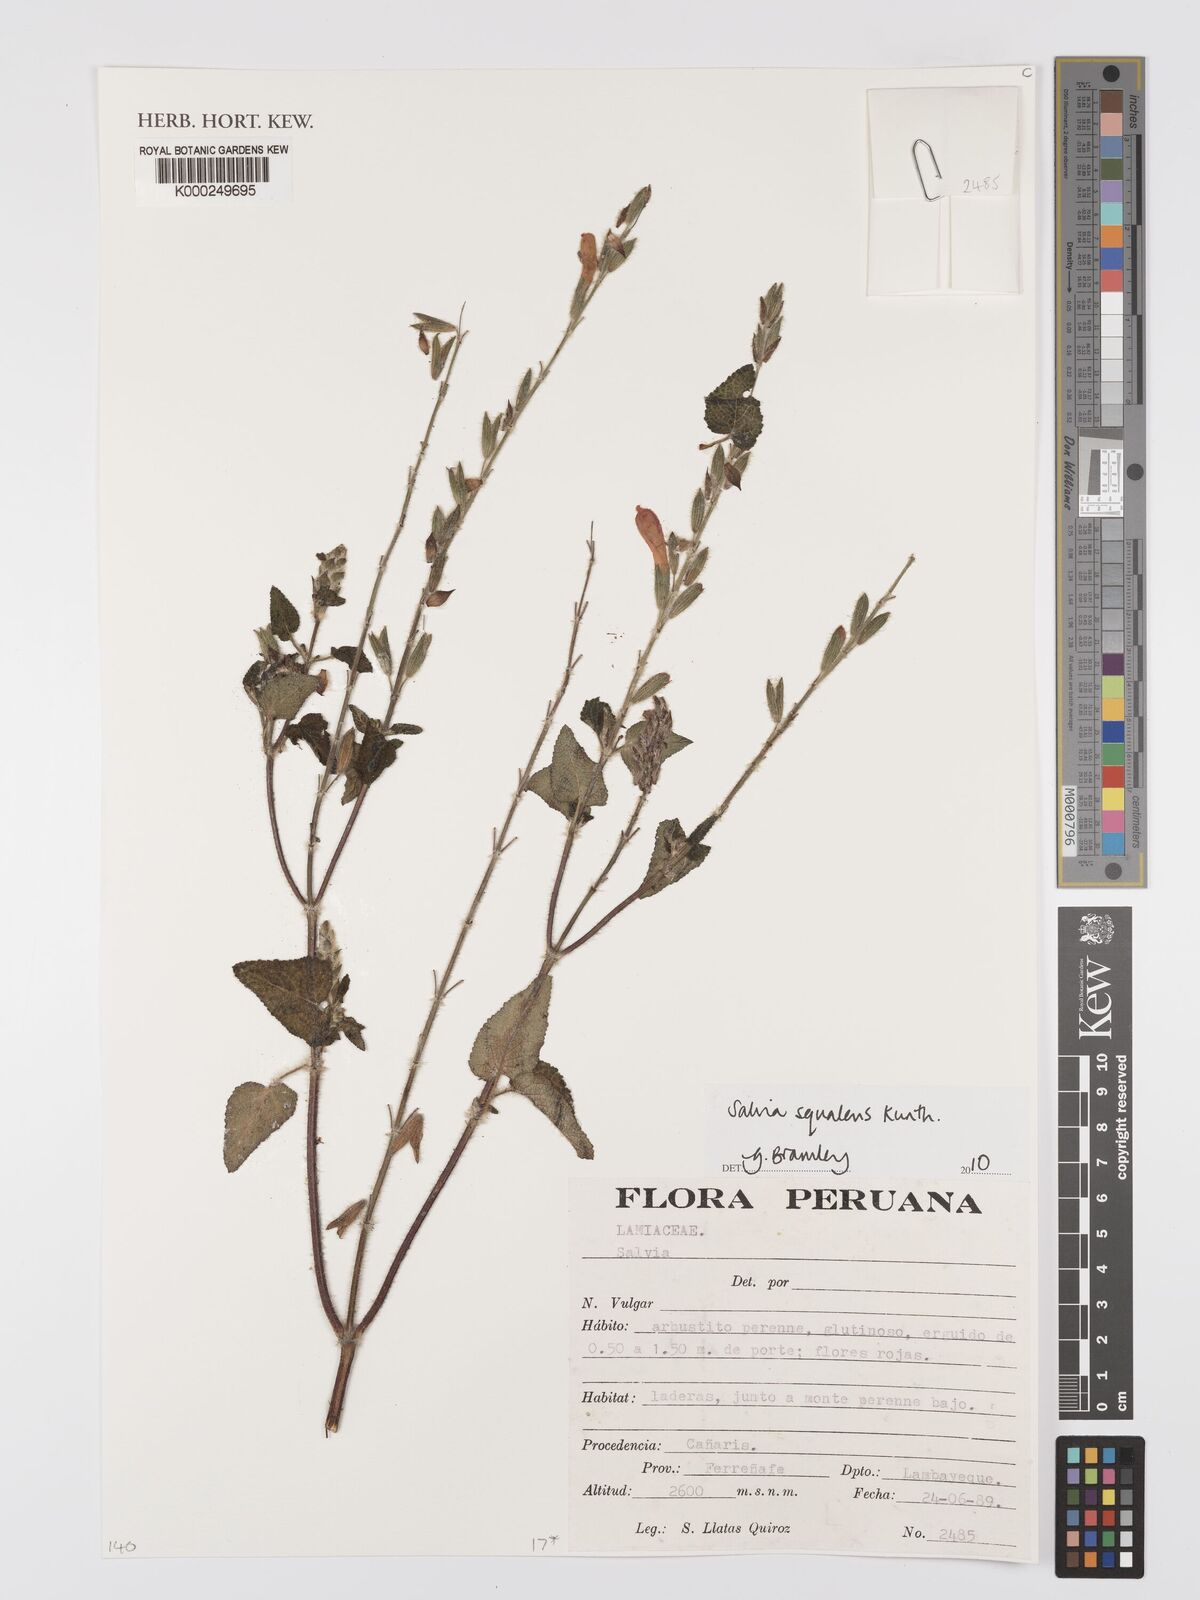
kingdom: Plantae
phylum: Tracheophyta
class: Magnoliopsida
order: Lamiales
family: Lamiaceae
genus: Salvia
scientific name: Salvia squalens
